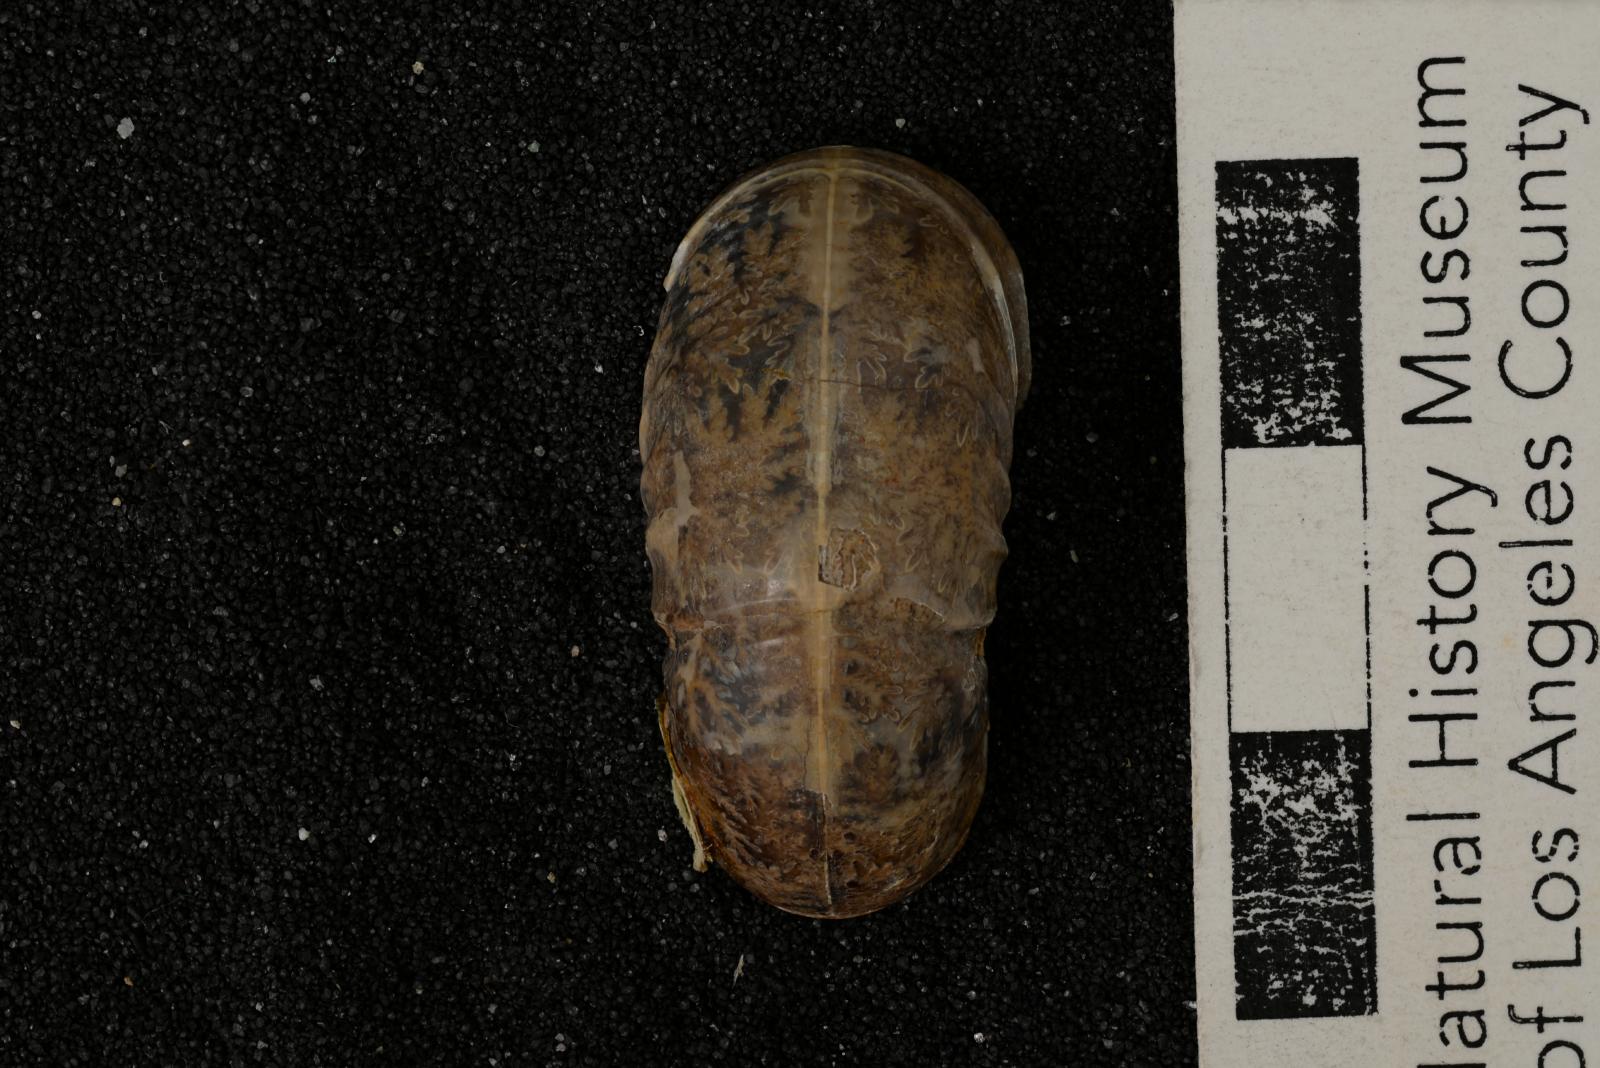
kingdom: Animalia
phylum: Mollusca
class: Cephalopoda
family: Kossmaticeratidae
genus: Eogunnarites
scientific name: Eogunnarites matsumotoi
